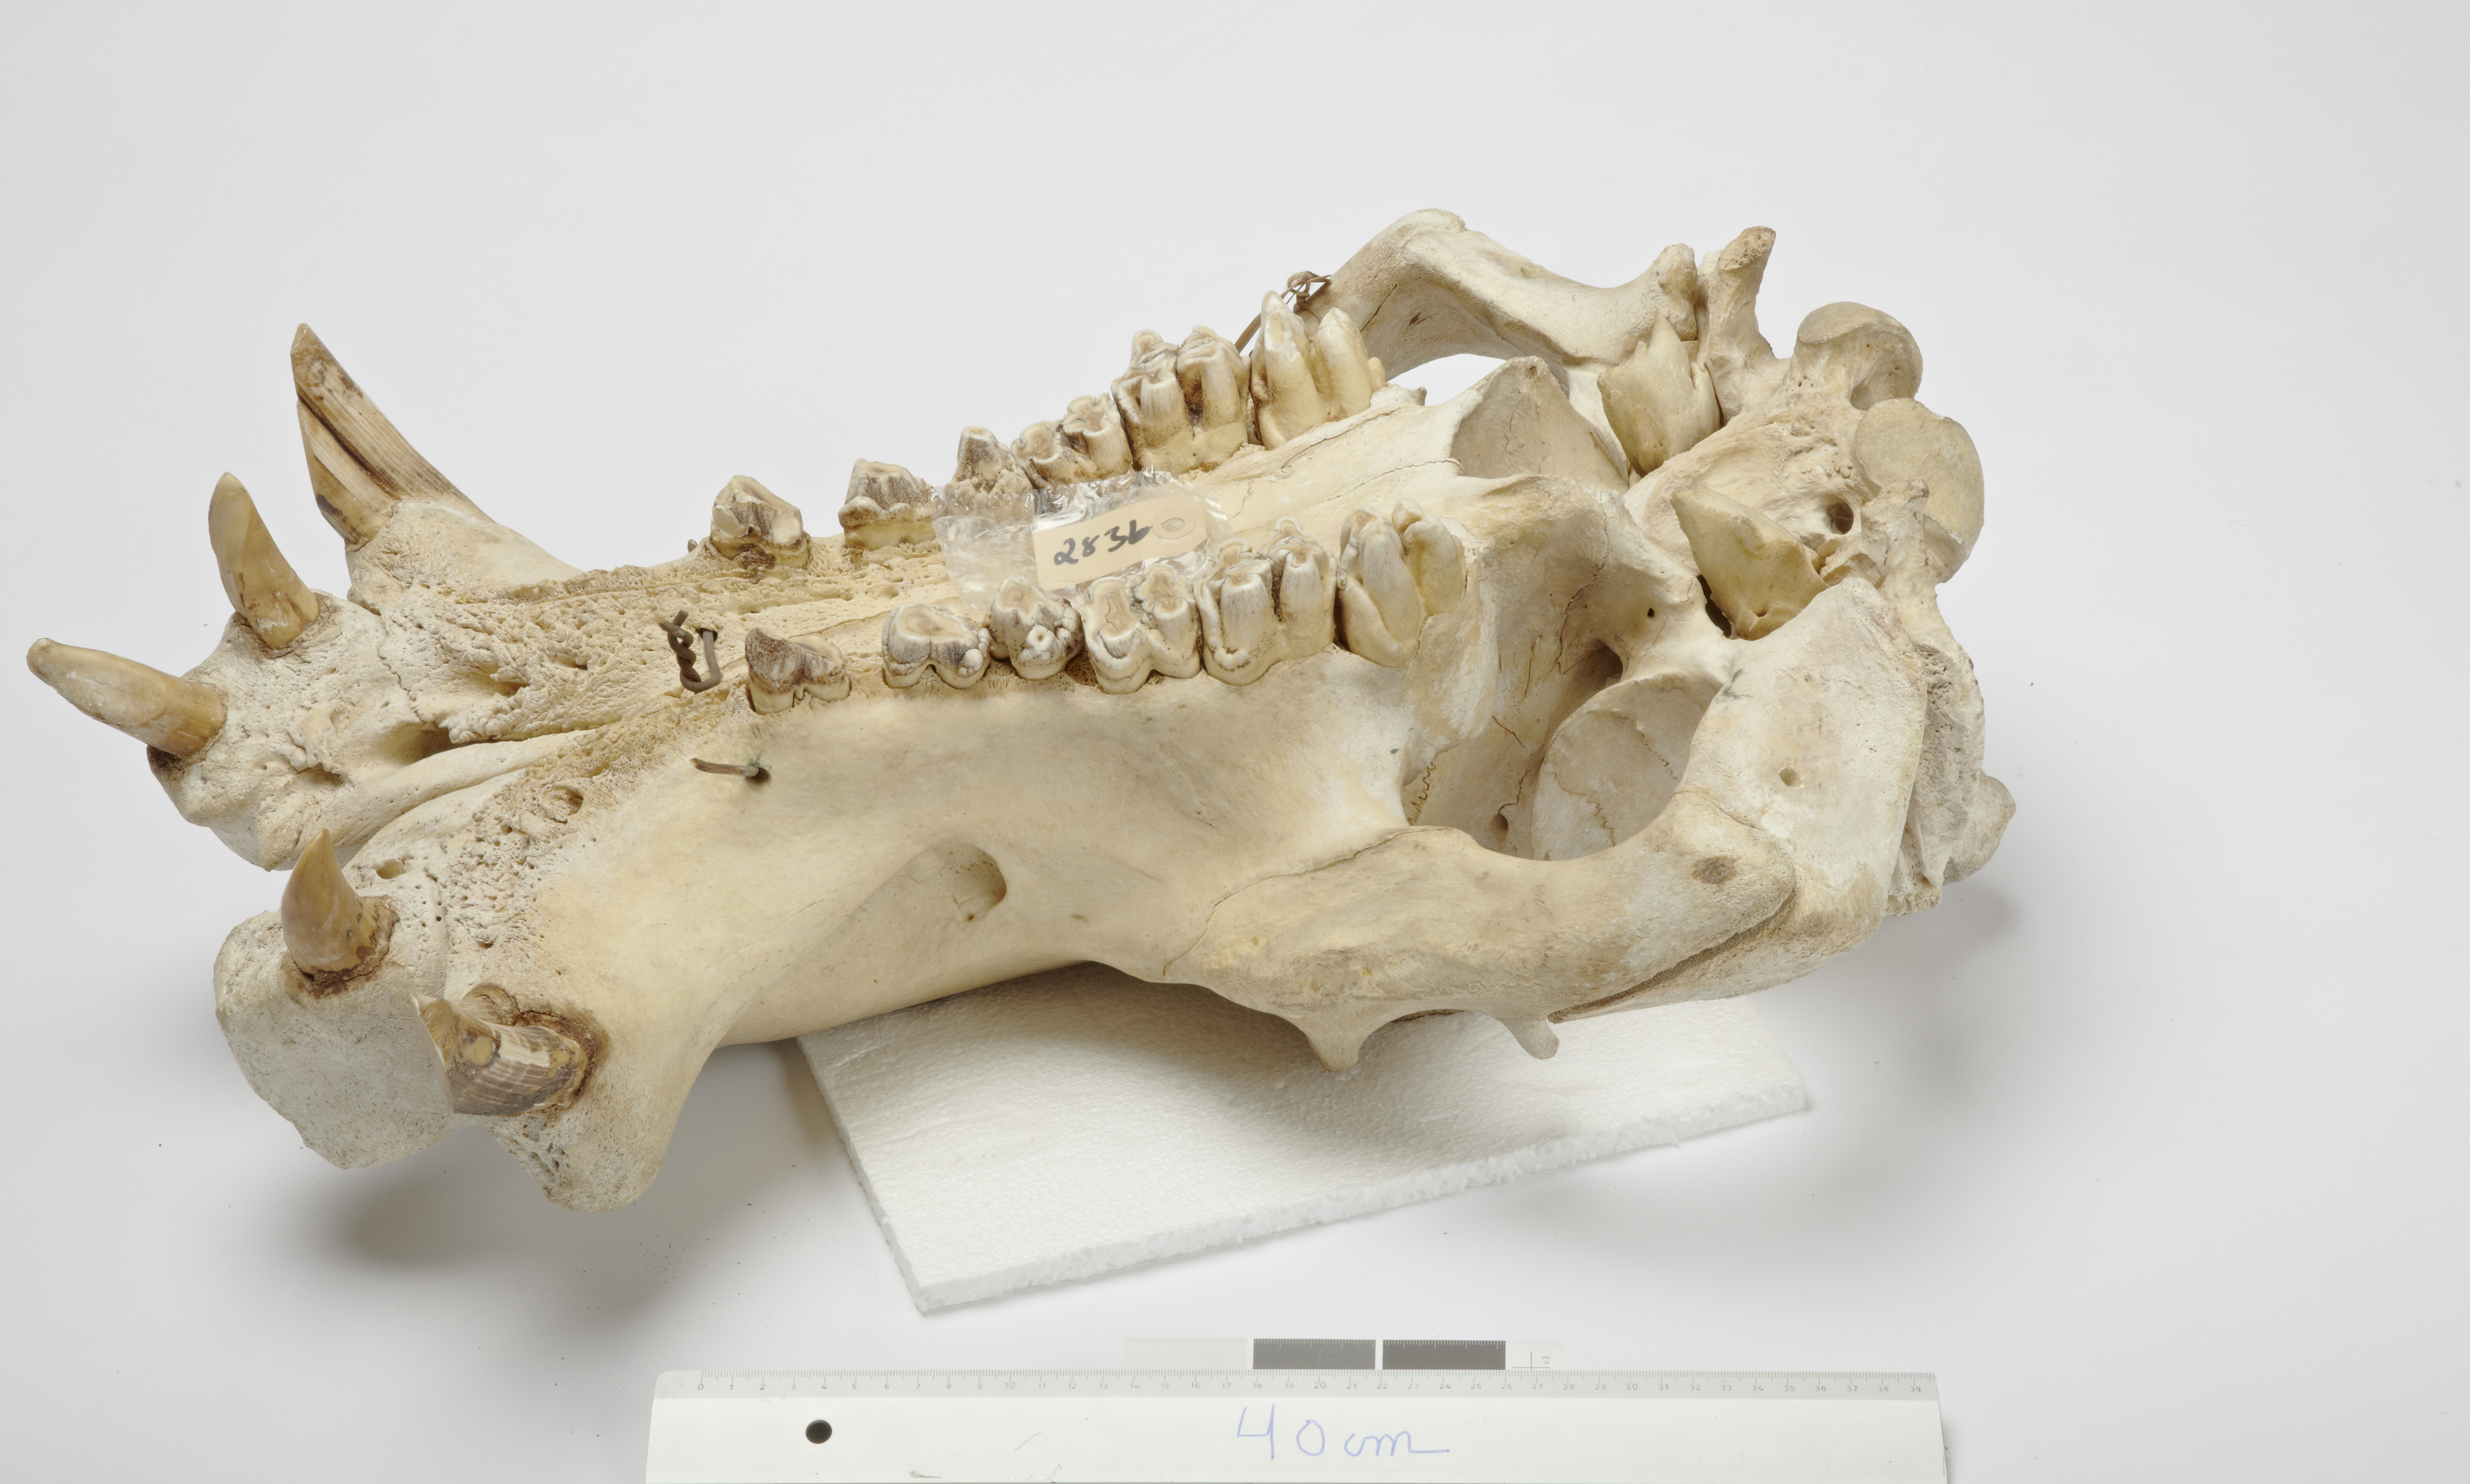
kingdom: Animalia
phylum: Chordata
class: Mammalia
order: Artiodactyla
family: Hippopotamidae
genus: Hippopotamus
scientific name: Hippopotamus amphibius
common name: Common hippopotamus
